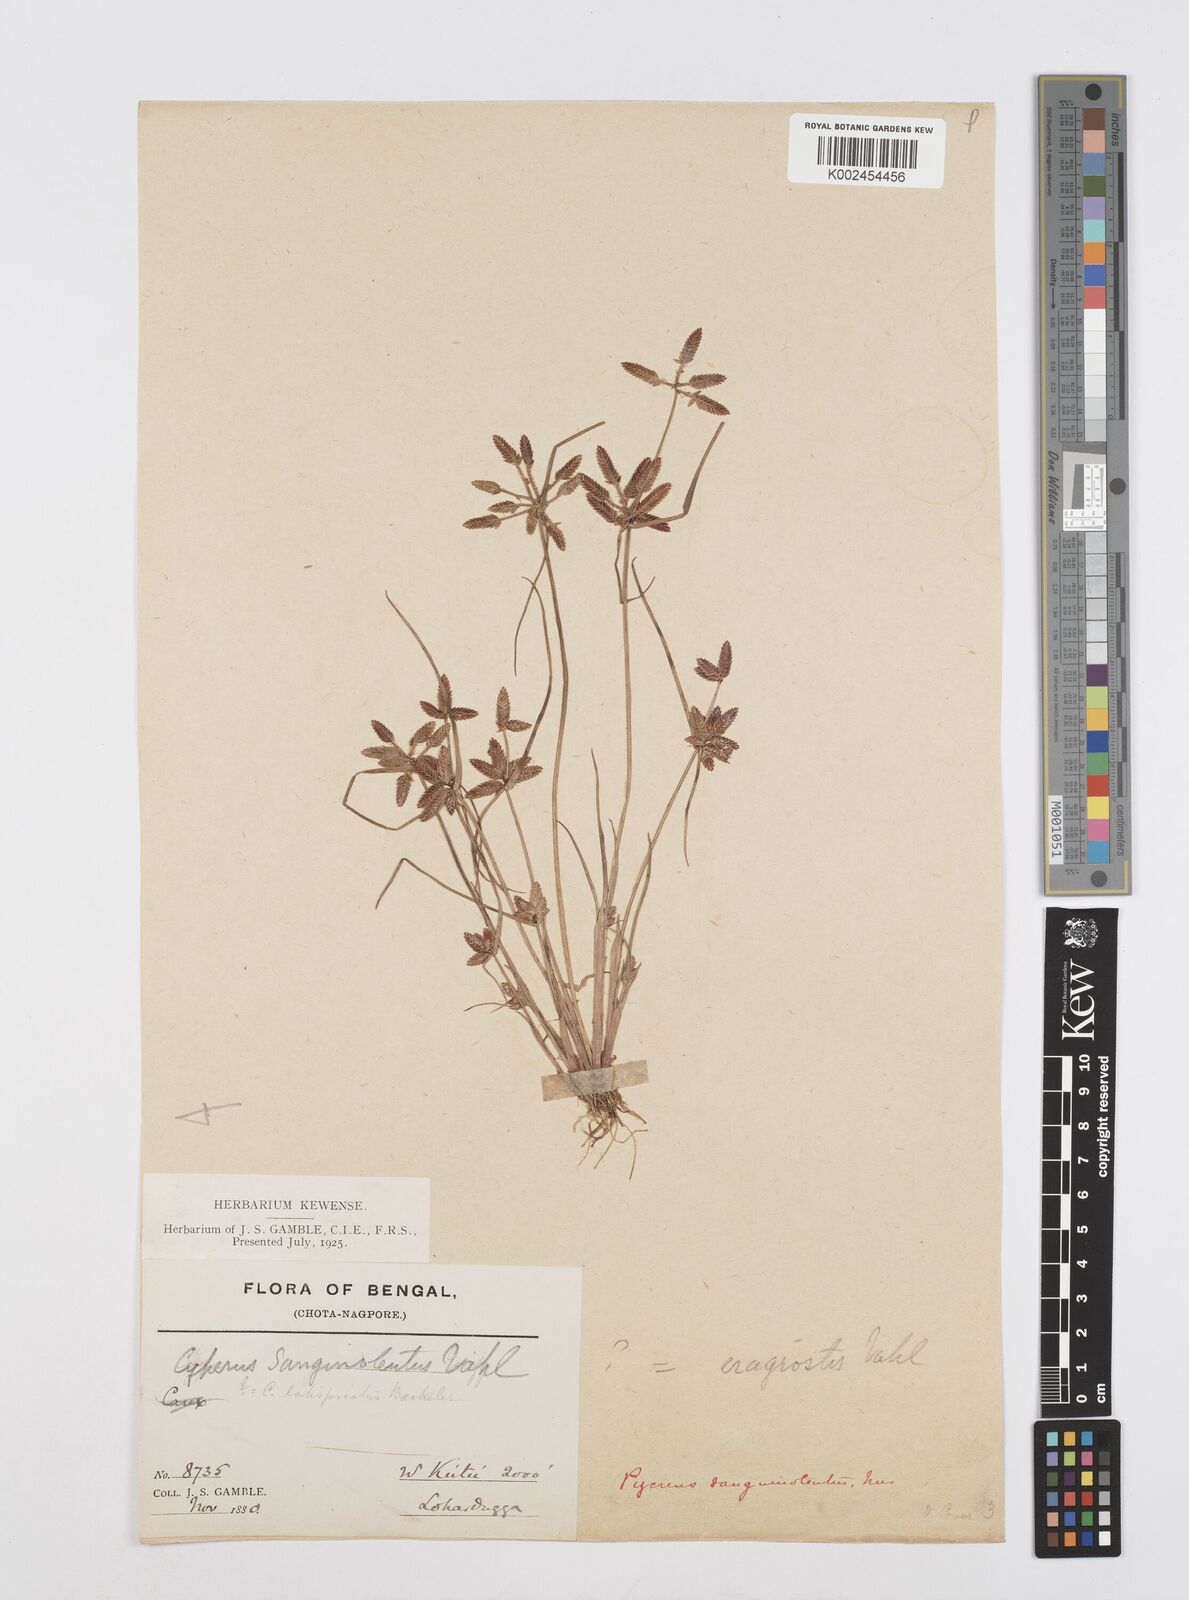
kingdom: Plantae
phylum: Tracheophyta
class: Liliopsida
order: Poales
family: Cyperaceae
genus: Cyperus
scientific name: Cyperus diaphanus
